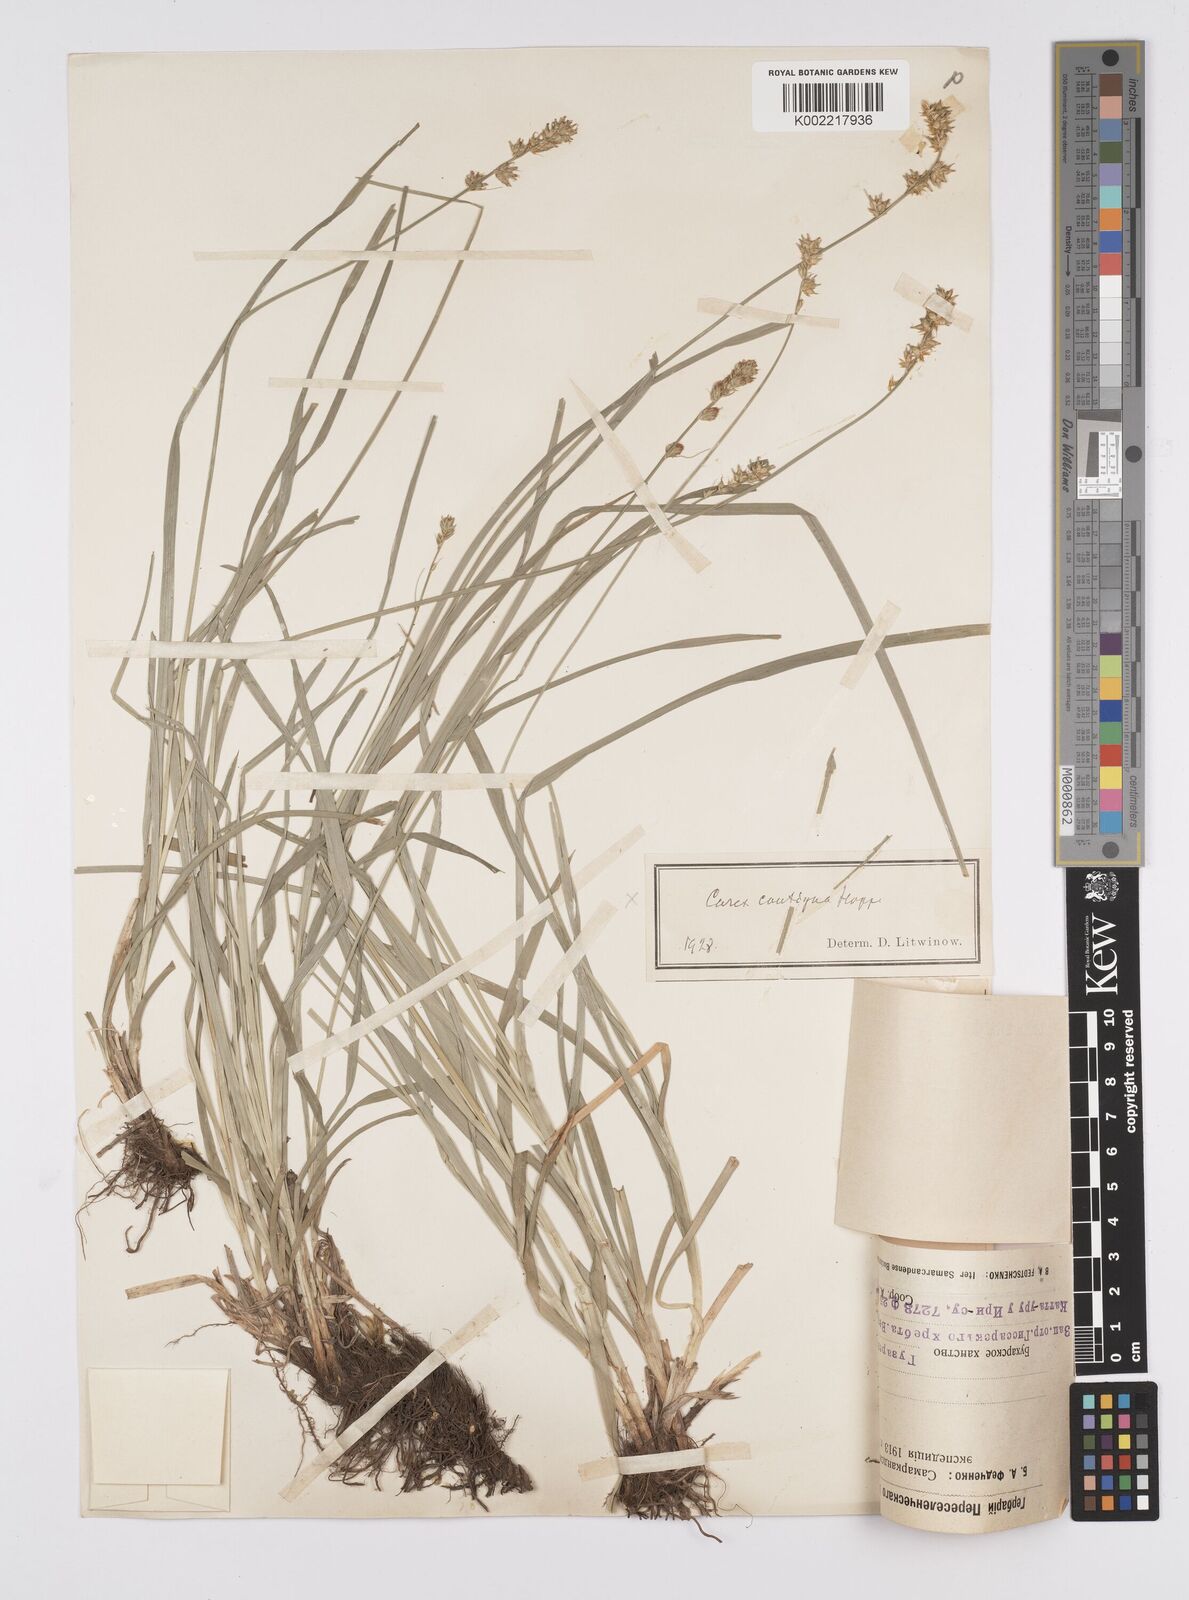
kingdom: Plantae
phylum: Tracheophyta
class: Liliopsida
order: Poales
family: Cyperaceae
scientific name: Cyperaceae
